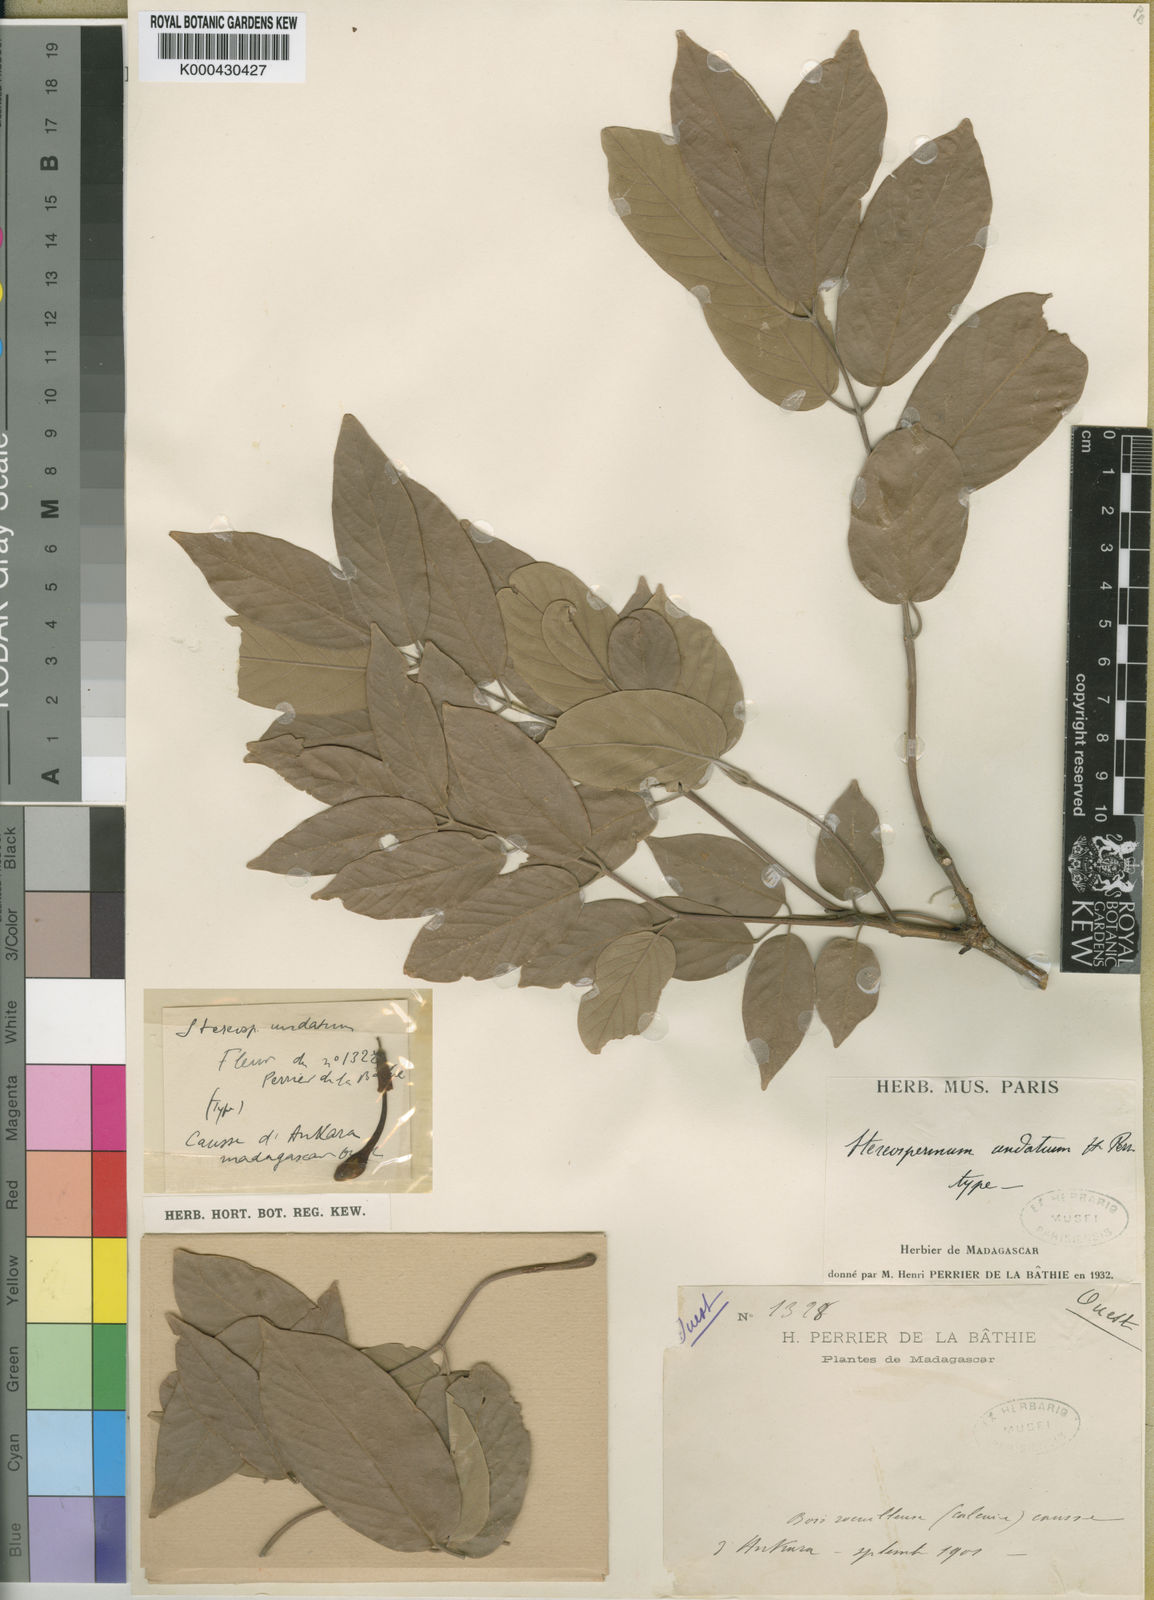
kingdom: Plantae
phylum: Tracheophyta
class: Magnoliopsida
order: Lamiales
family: Bignoniaceae
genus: Stereospermum
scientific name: Stereospermum undatum
